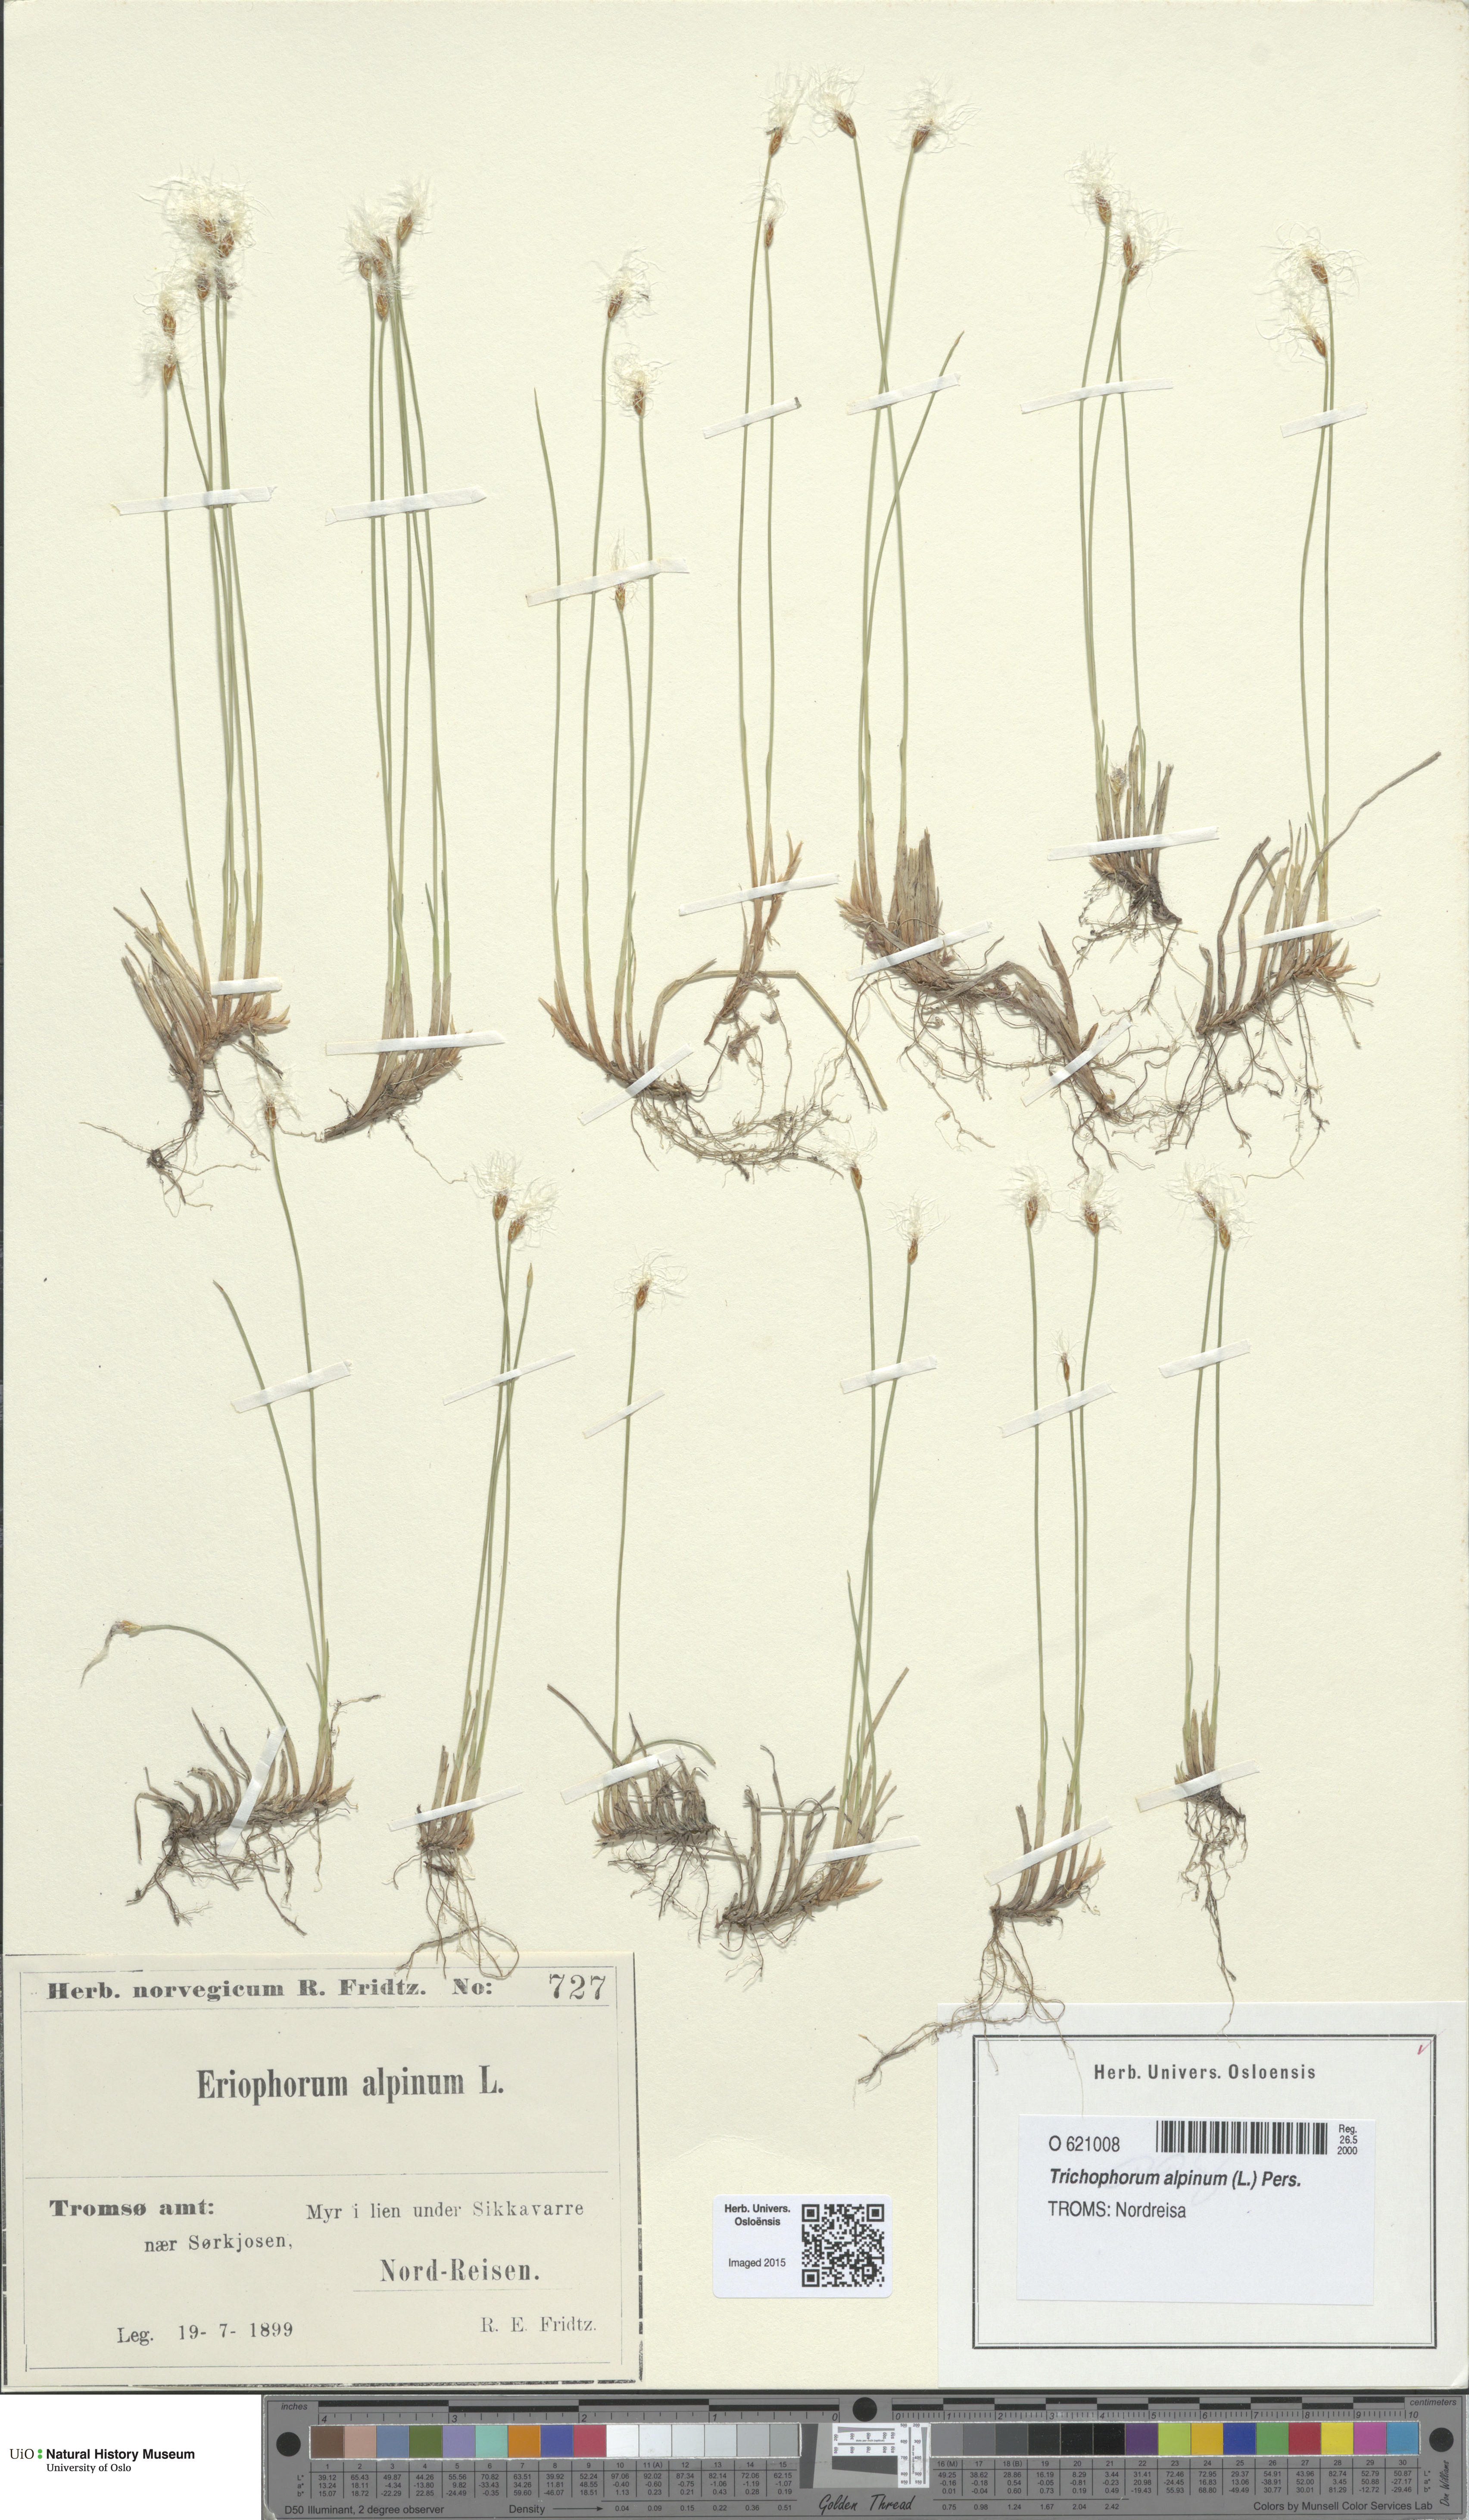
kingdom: Plantae
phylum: Tracheophyta
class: Liliopsida
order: Poales
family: Cyperaceae
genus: Trichophorum
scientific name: Trichophorum alpinum
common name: Alpine bulrush
